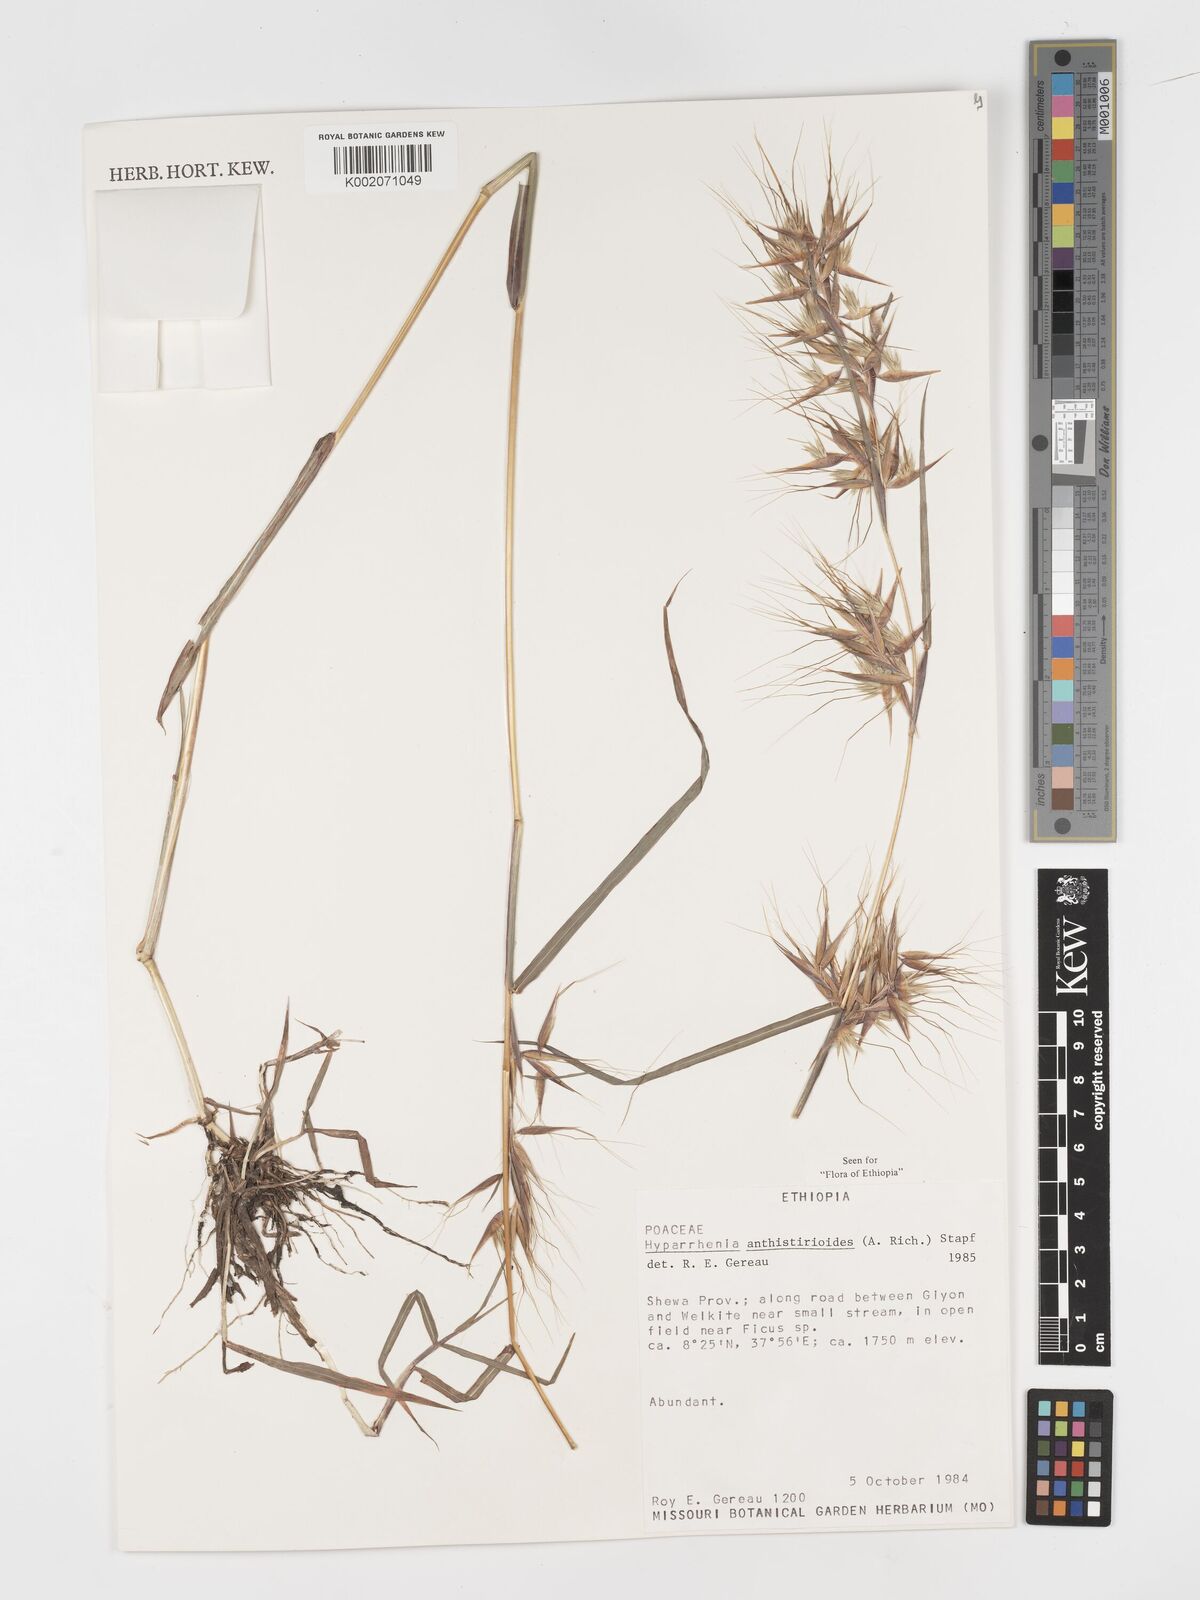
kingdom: Plantae
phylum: Tracheophyta
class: Liliopsida
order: Poales
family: Poaceae
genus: Hyparrhenia
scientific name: Hyparrhenia anthistirioides
